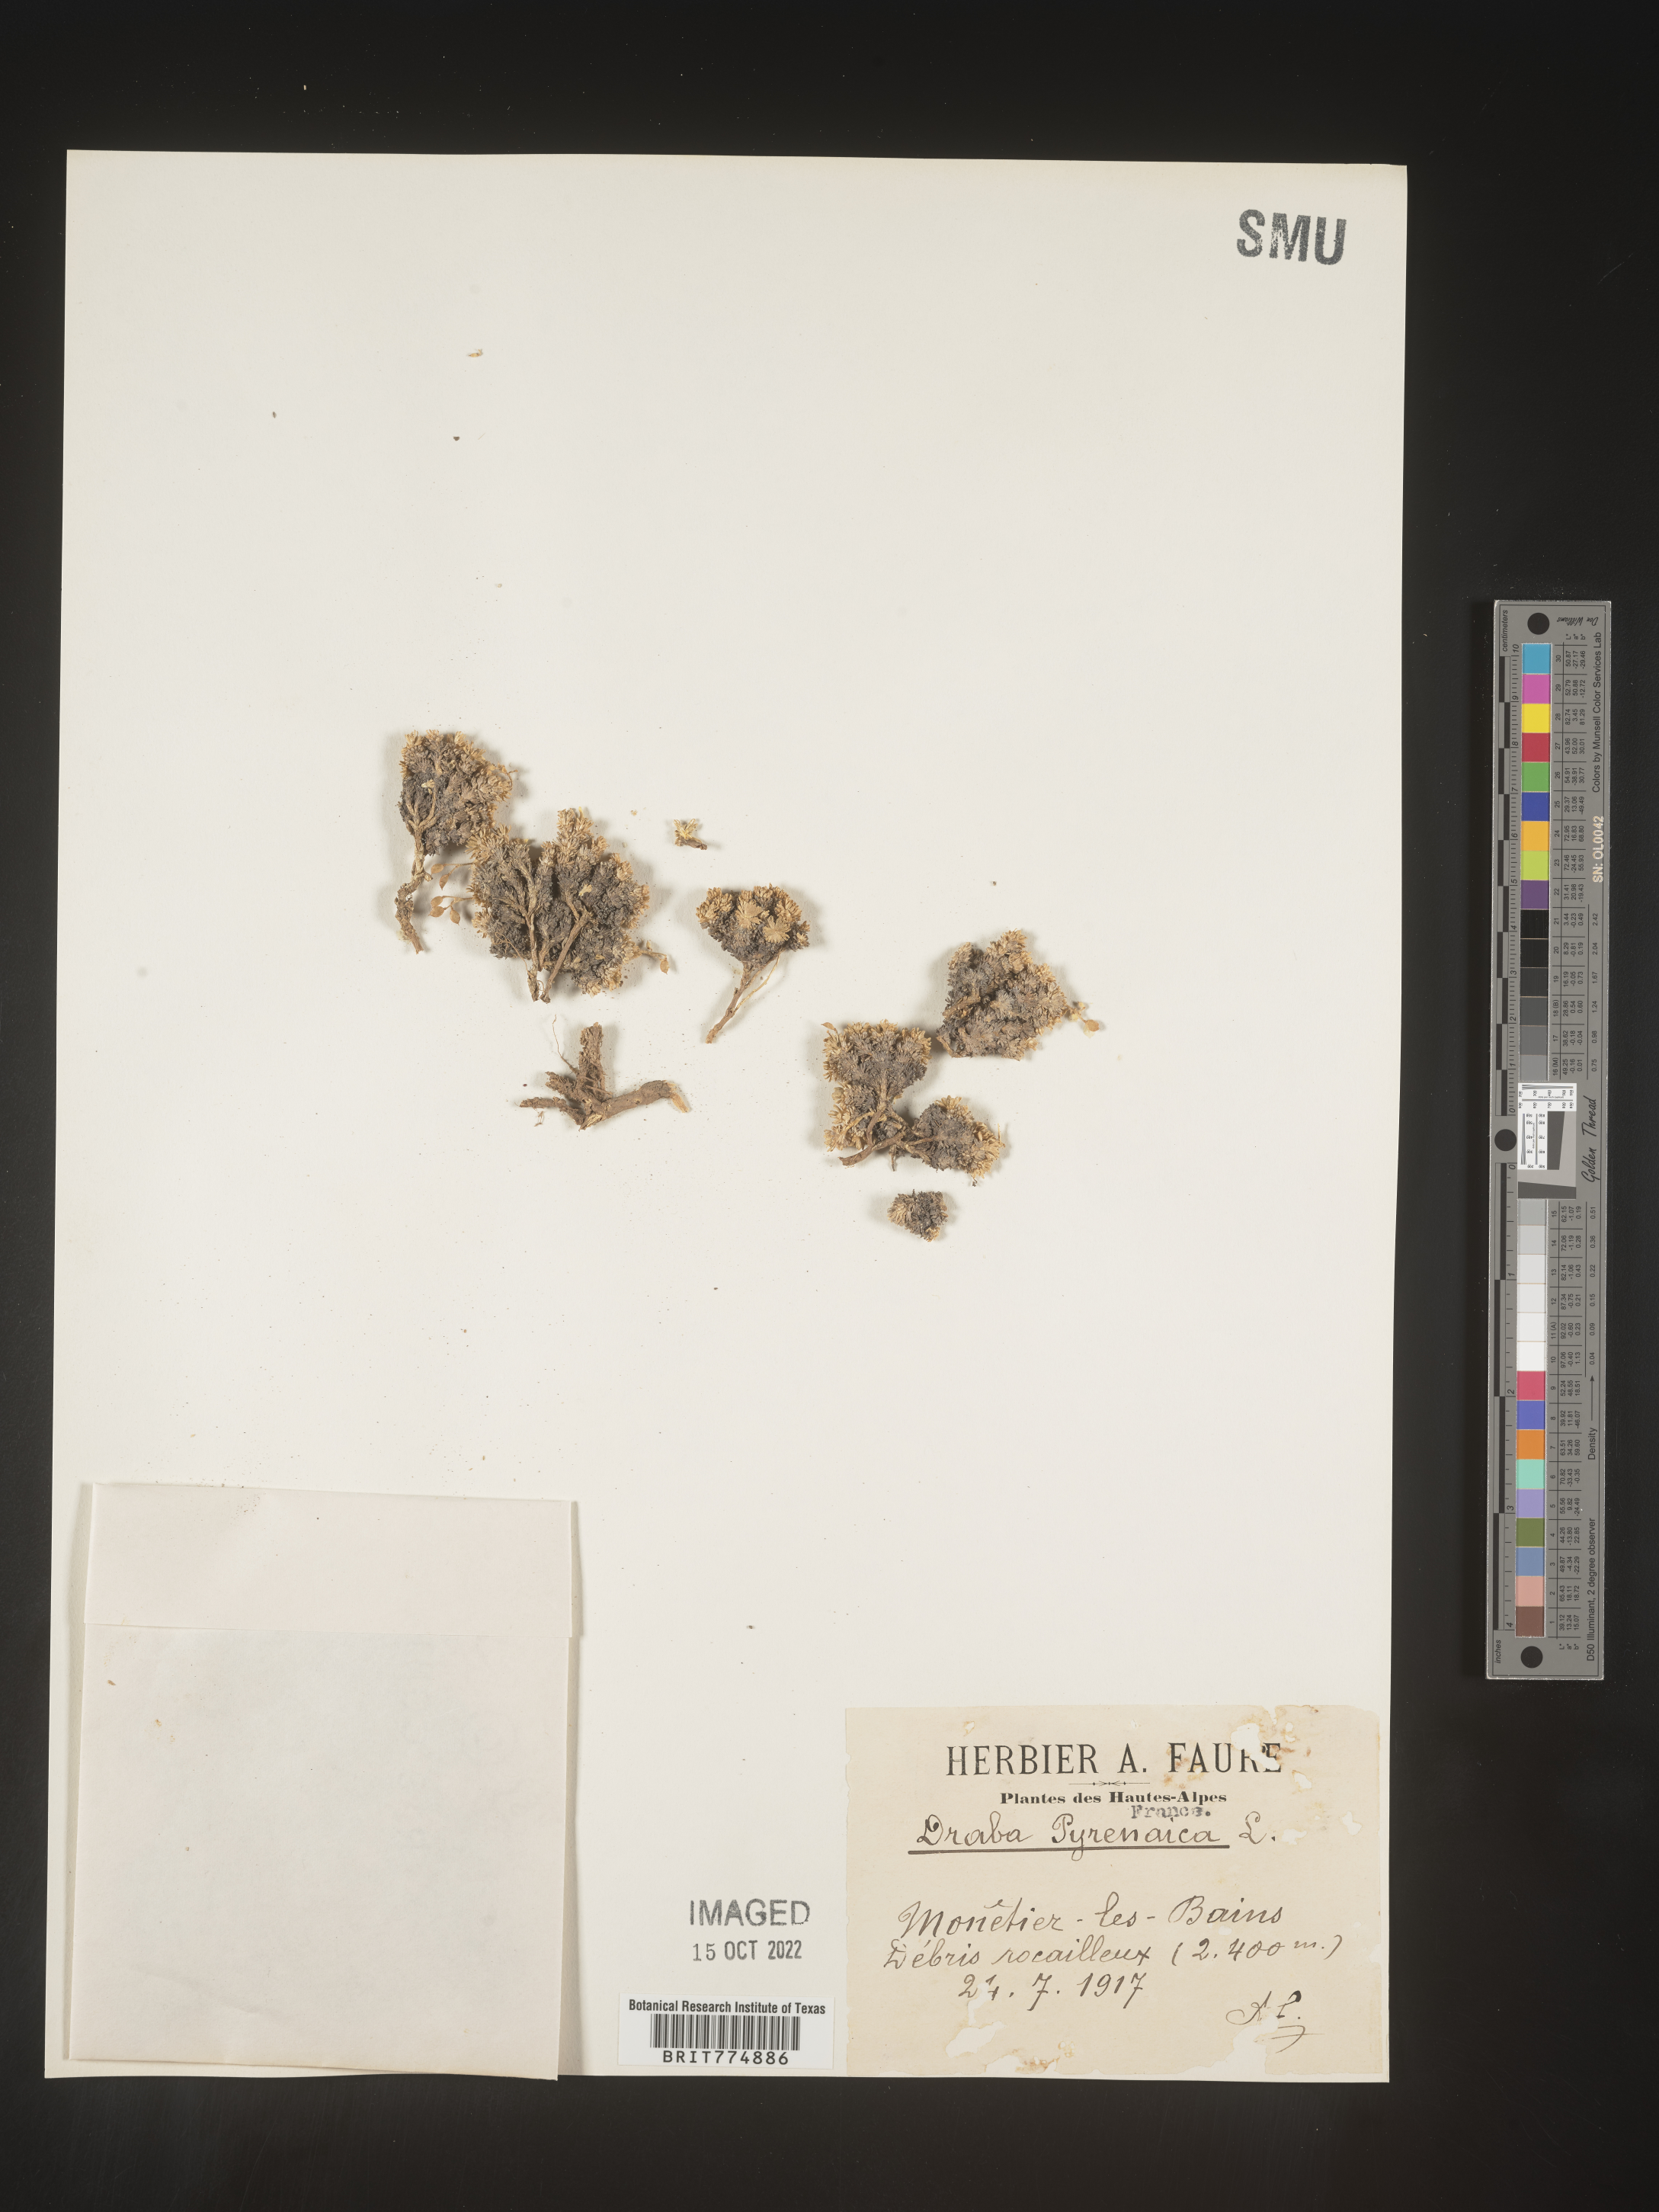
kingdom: Plantae
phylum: Tracheophyta
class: Magnoliopsida
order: Brassicales
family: Brassicaceae
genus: Draba
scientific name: Draba
